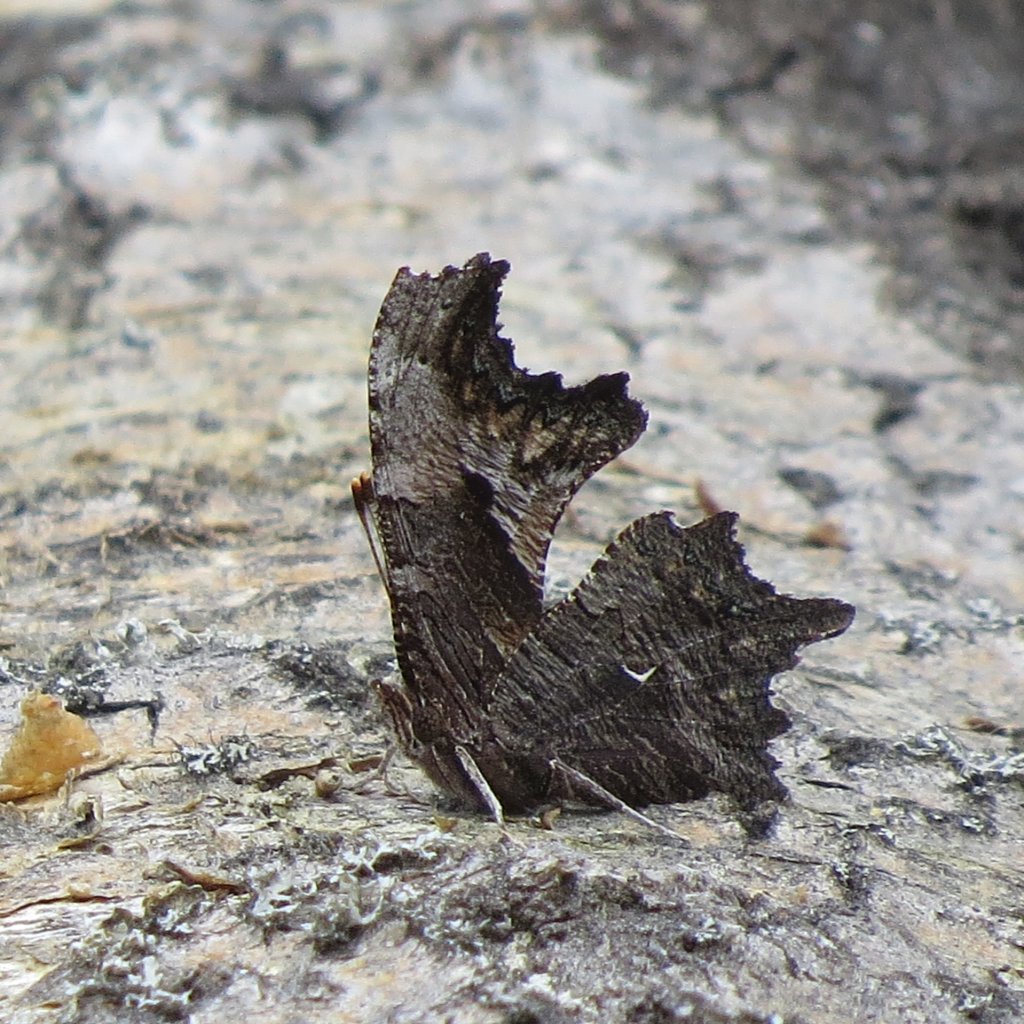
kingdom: Animalia
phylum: Arthropoda
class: Insecta
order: Lepidoptera
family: Nymphalidae
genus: Polygonia
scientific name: Polygonia progne
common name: Gray Comma
